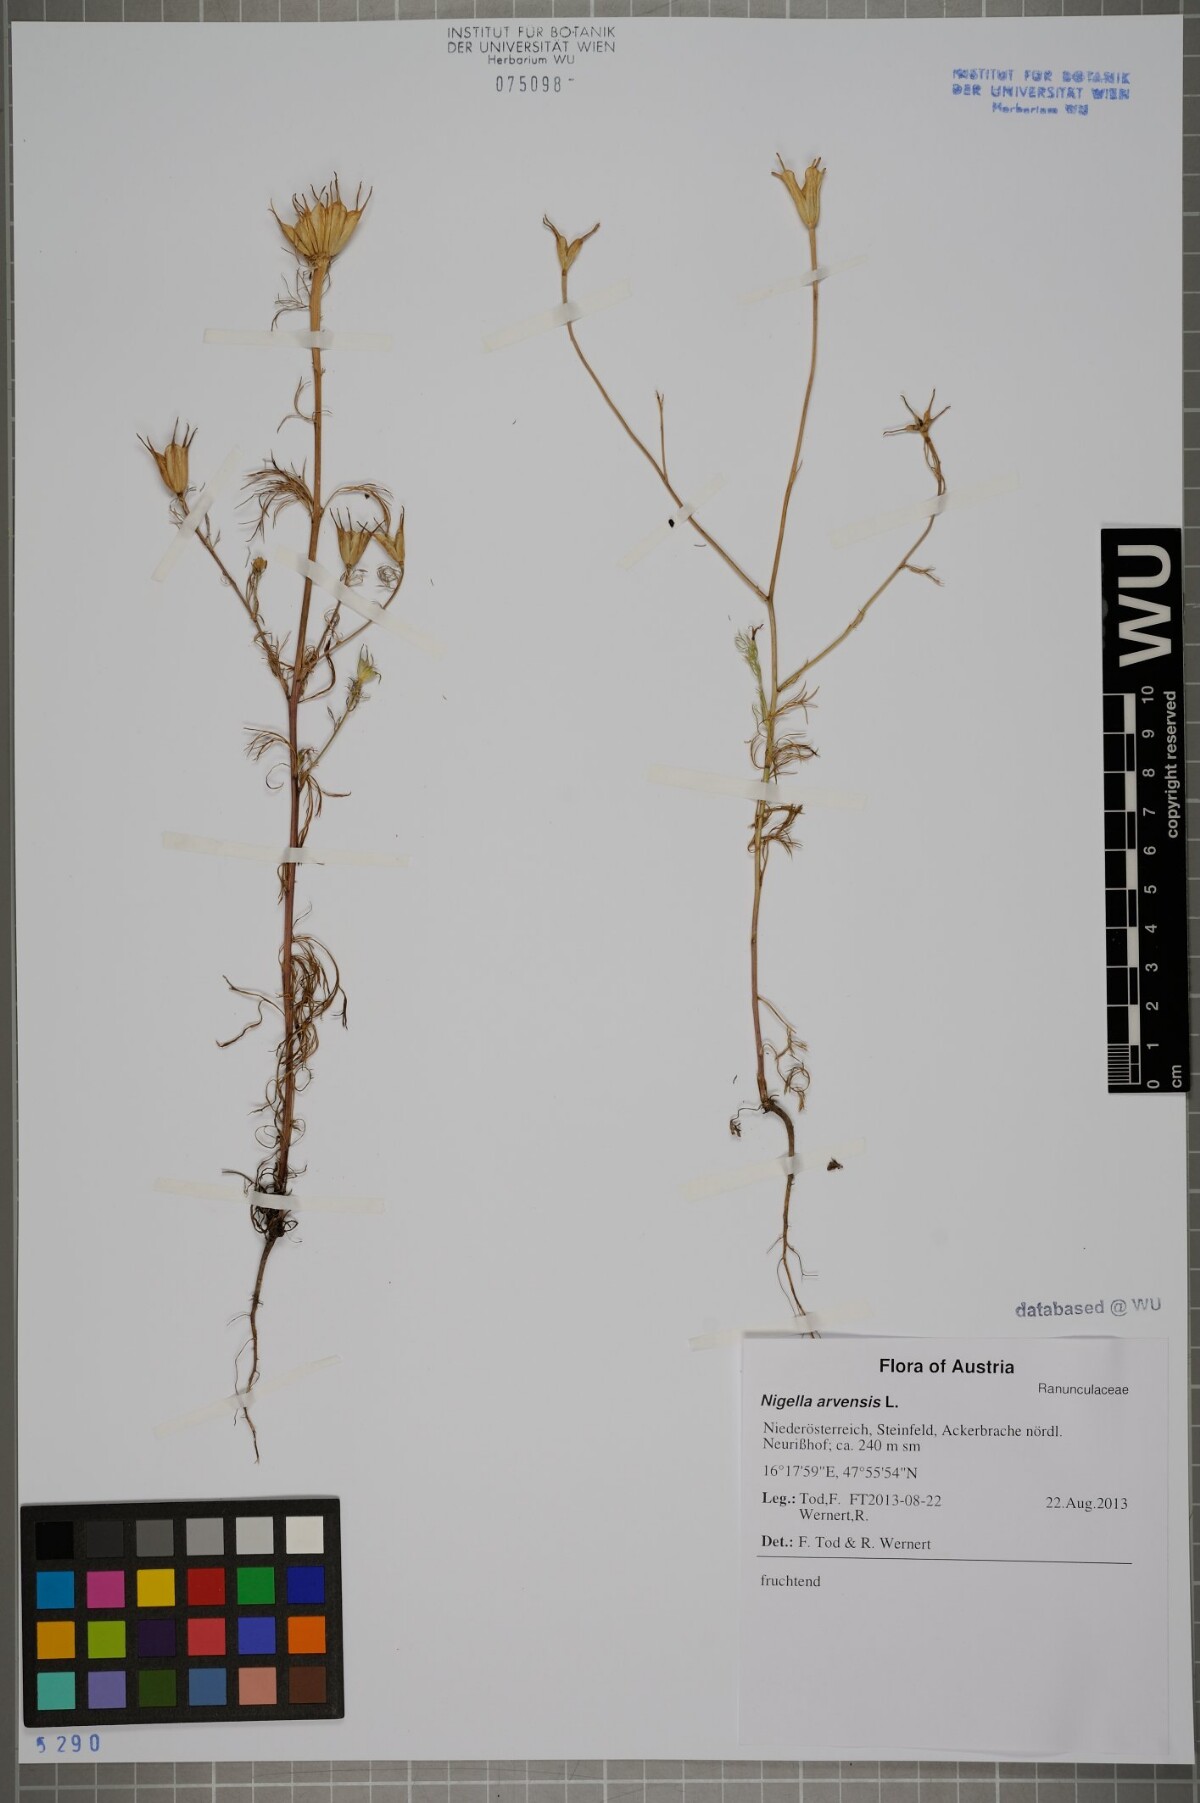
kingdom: Plantae
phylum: Tracheophyta
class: Magnoliopsida
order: Ranunculales
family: Ranunculaceae
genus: Nigella
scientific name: Nigella arvensis
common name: Wild fennel-flower
